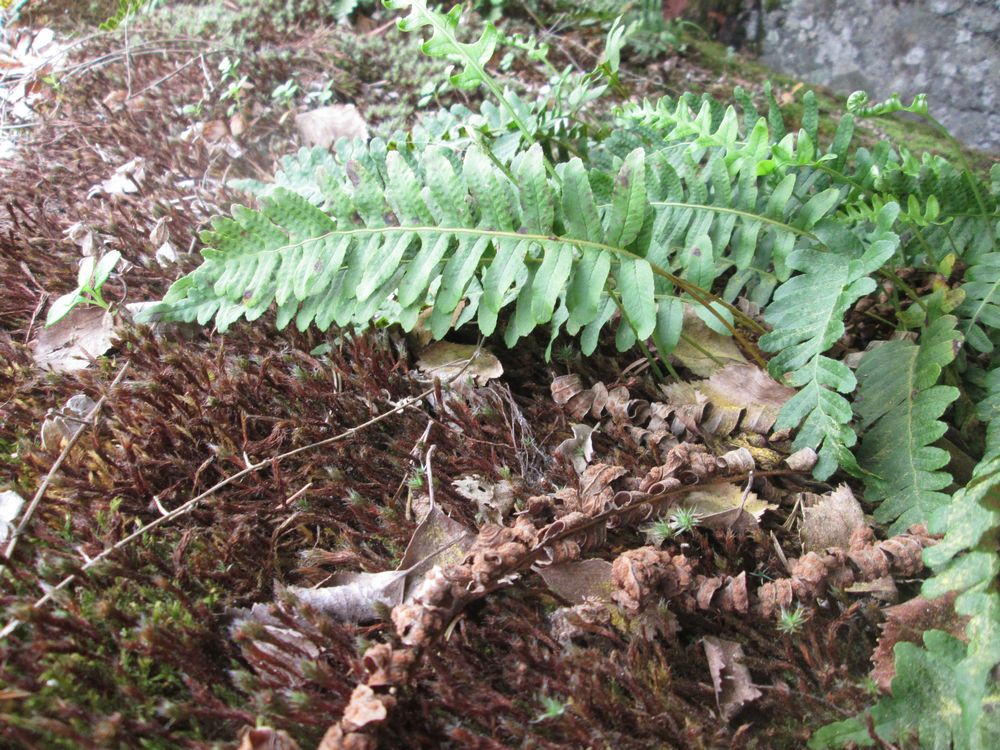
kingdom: Plantae
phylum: Tracheophyta
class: Polypodiopsida
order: Polypodiales
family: Polypodiaceae
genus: Polypodium
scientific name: Polypodium vulgare
